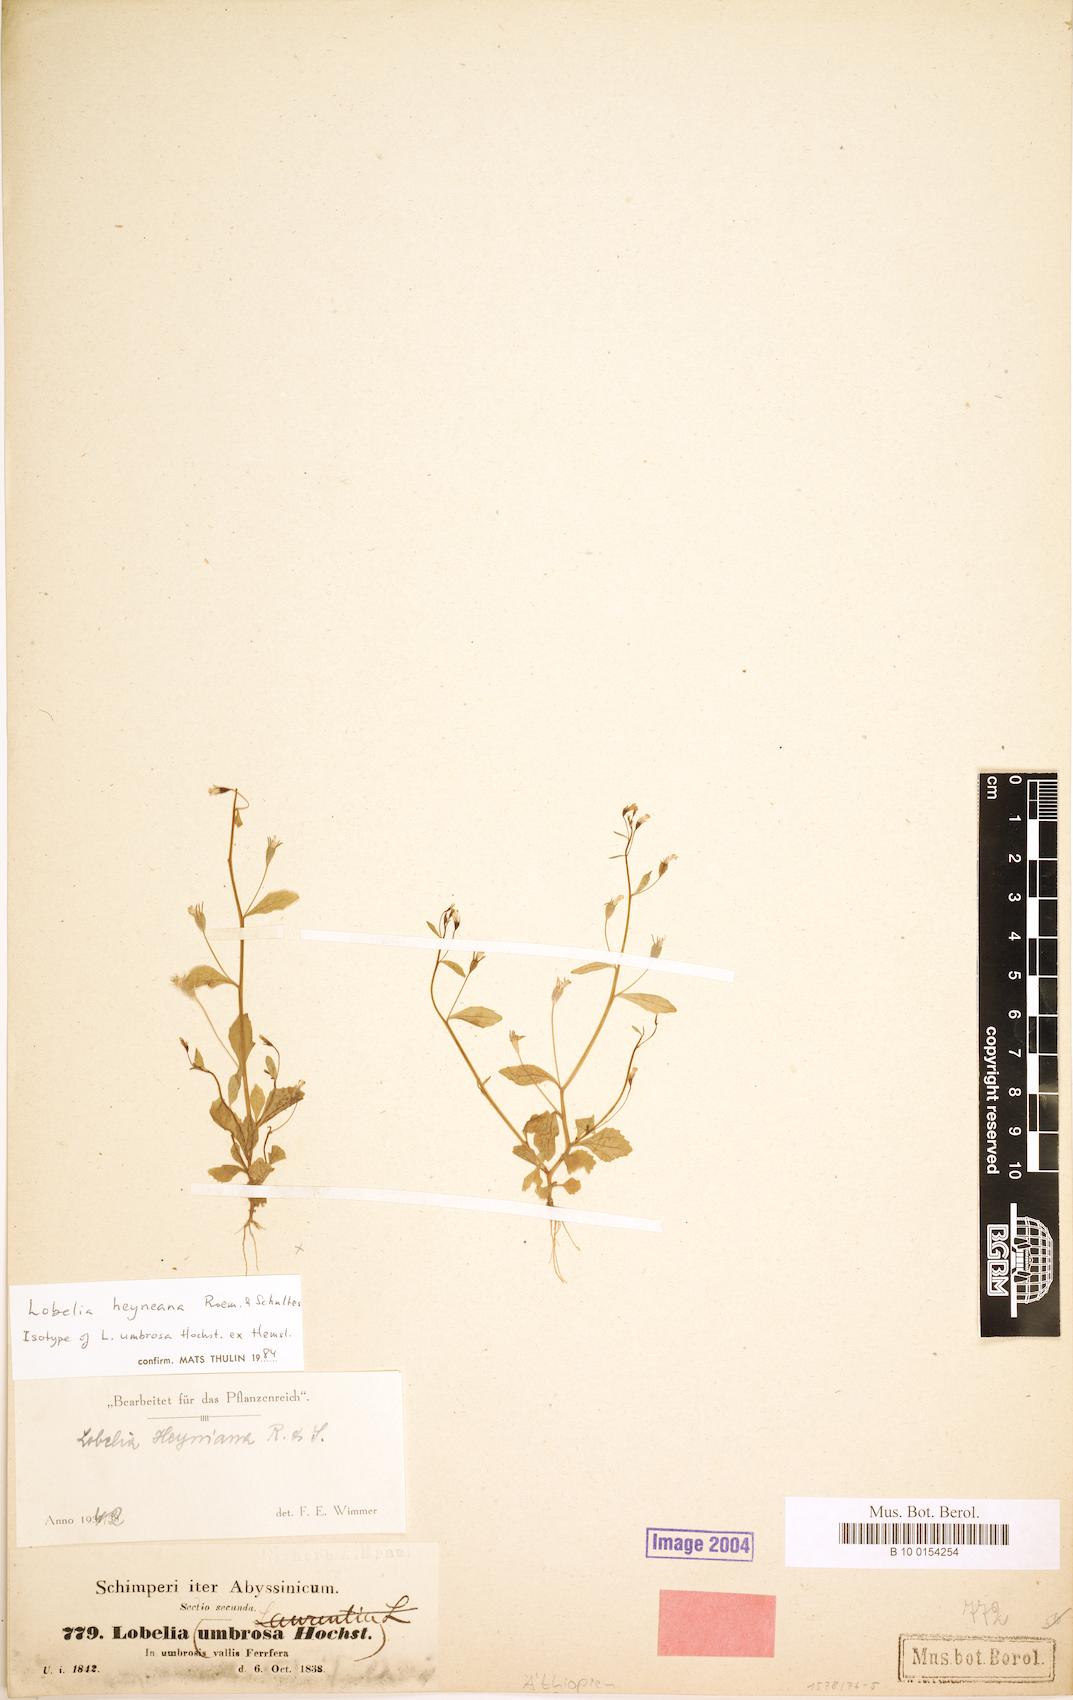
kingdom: Plantae
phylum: Tracheophyta
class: Magnoliopsida
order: Asterales
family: Campanulaceae
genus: Lobelia
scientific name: Lobelia heyneana
